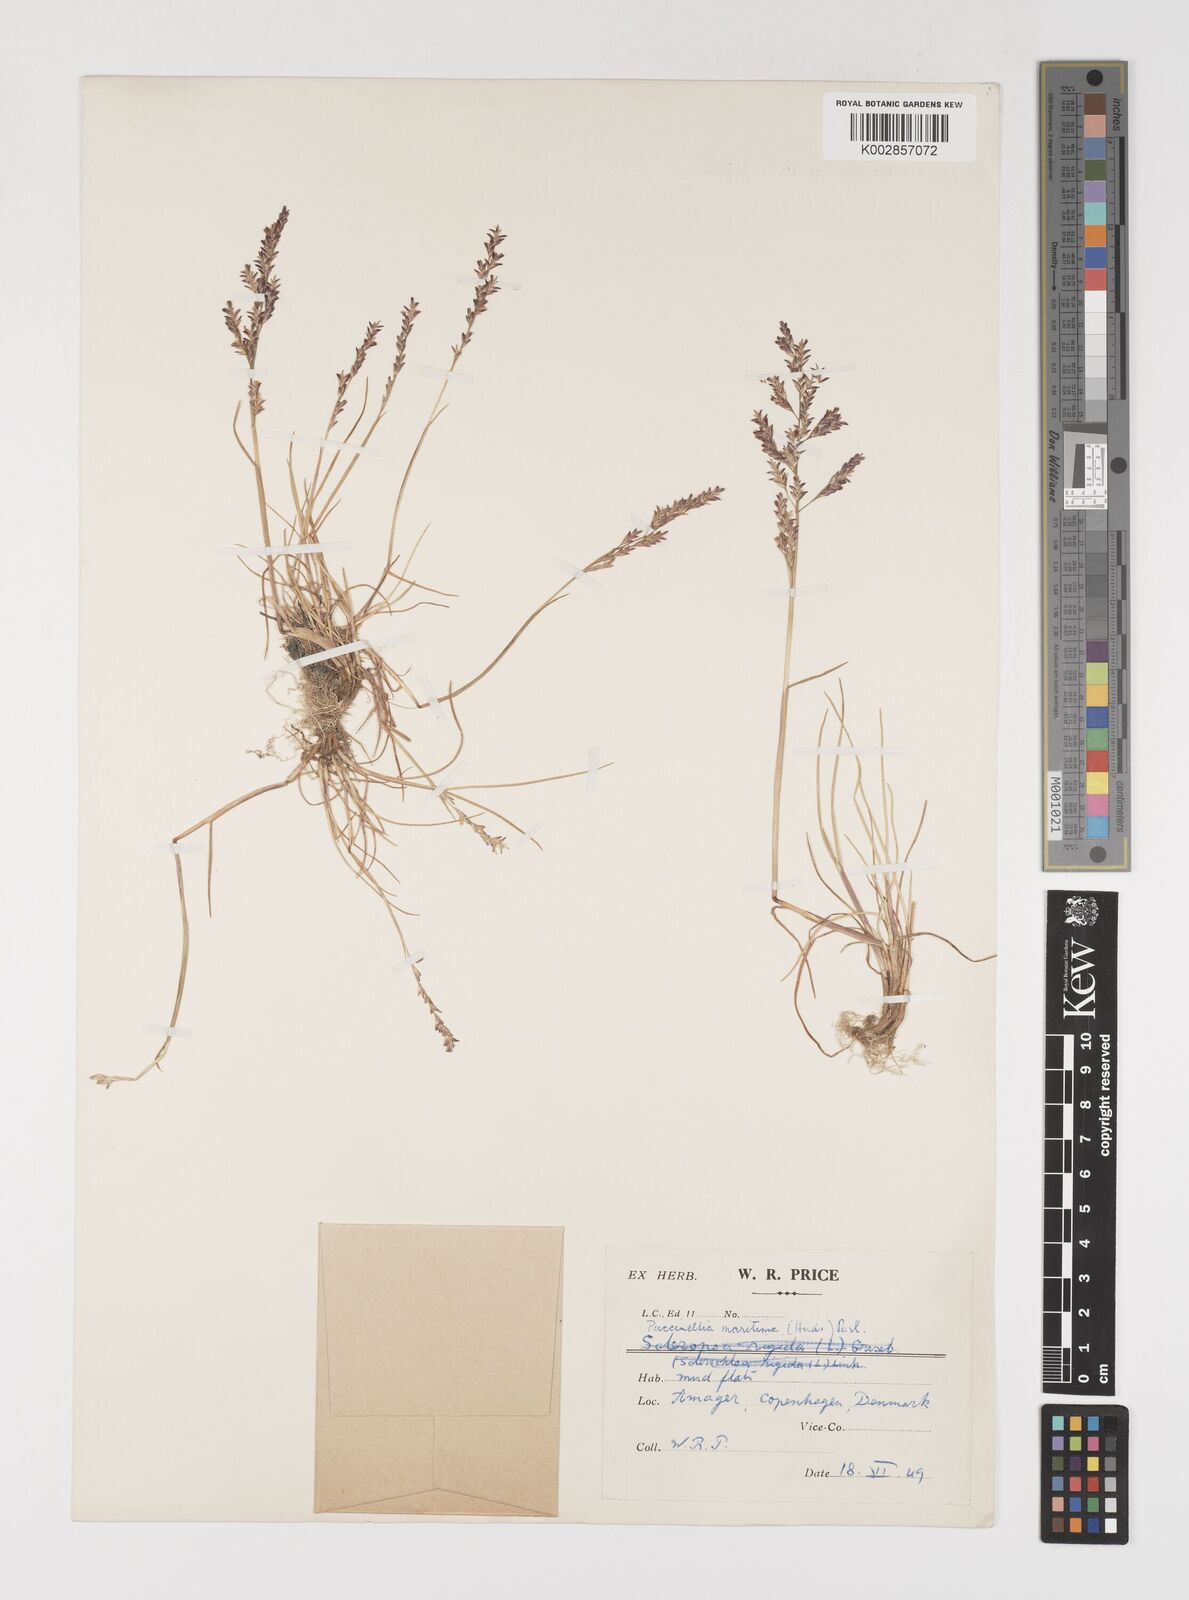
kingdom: Plantae
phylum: Tracheophyta
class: Liliopsida
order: Poales
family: Poaceae
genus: Puccinellia
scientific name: Puccinellia maritima
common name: Common saltmarsh grass
